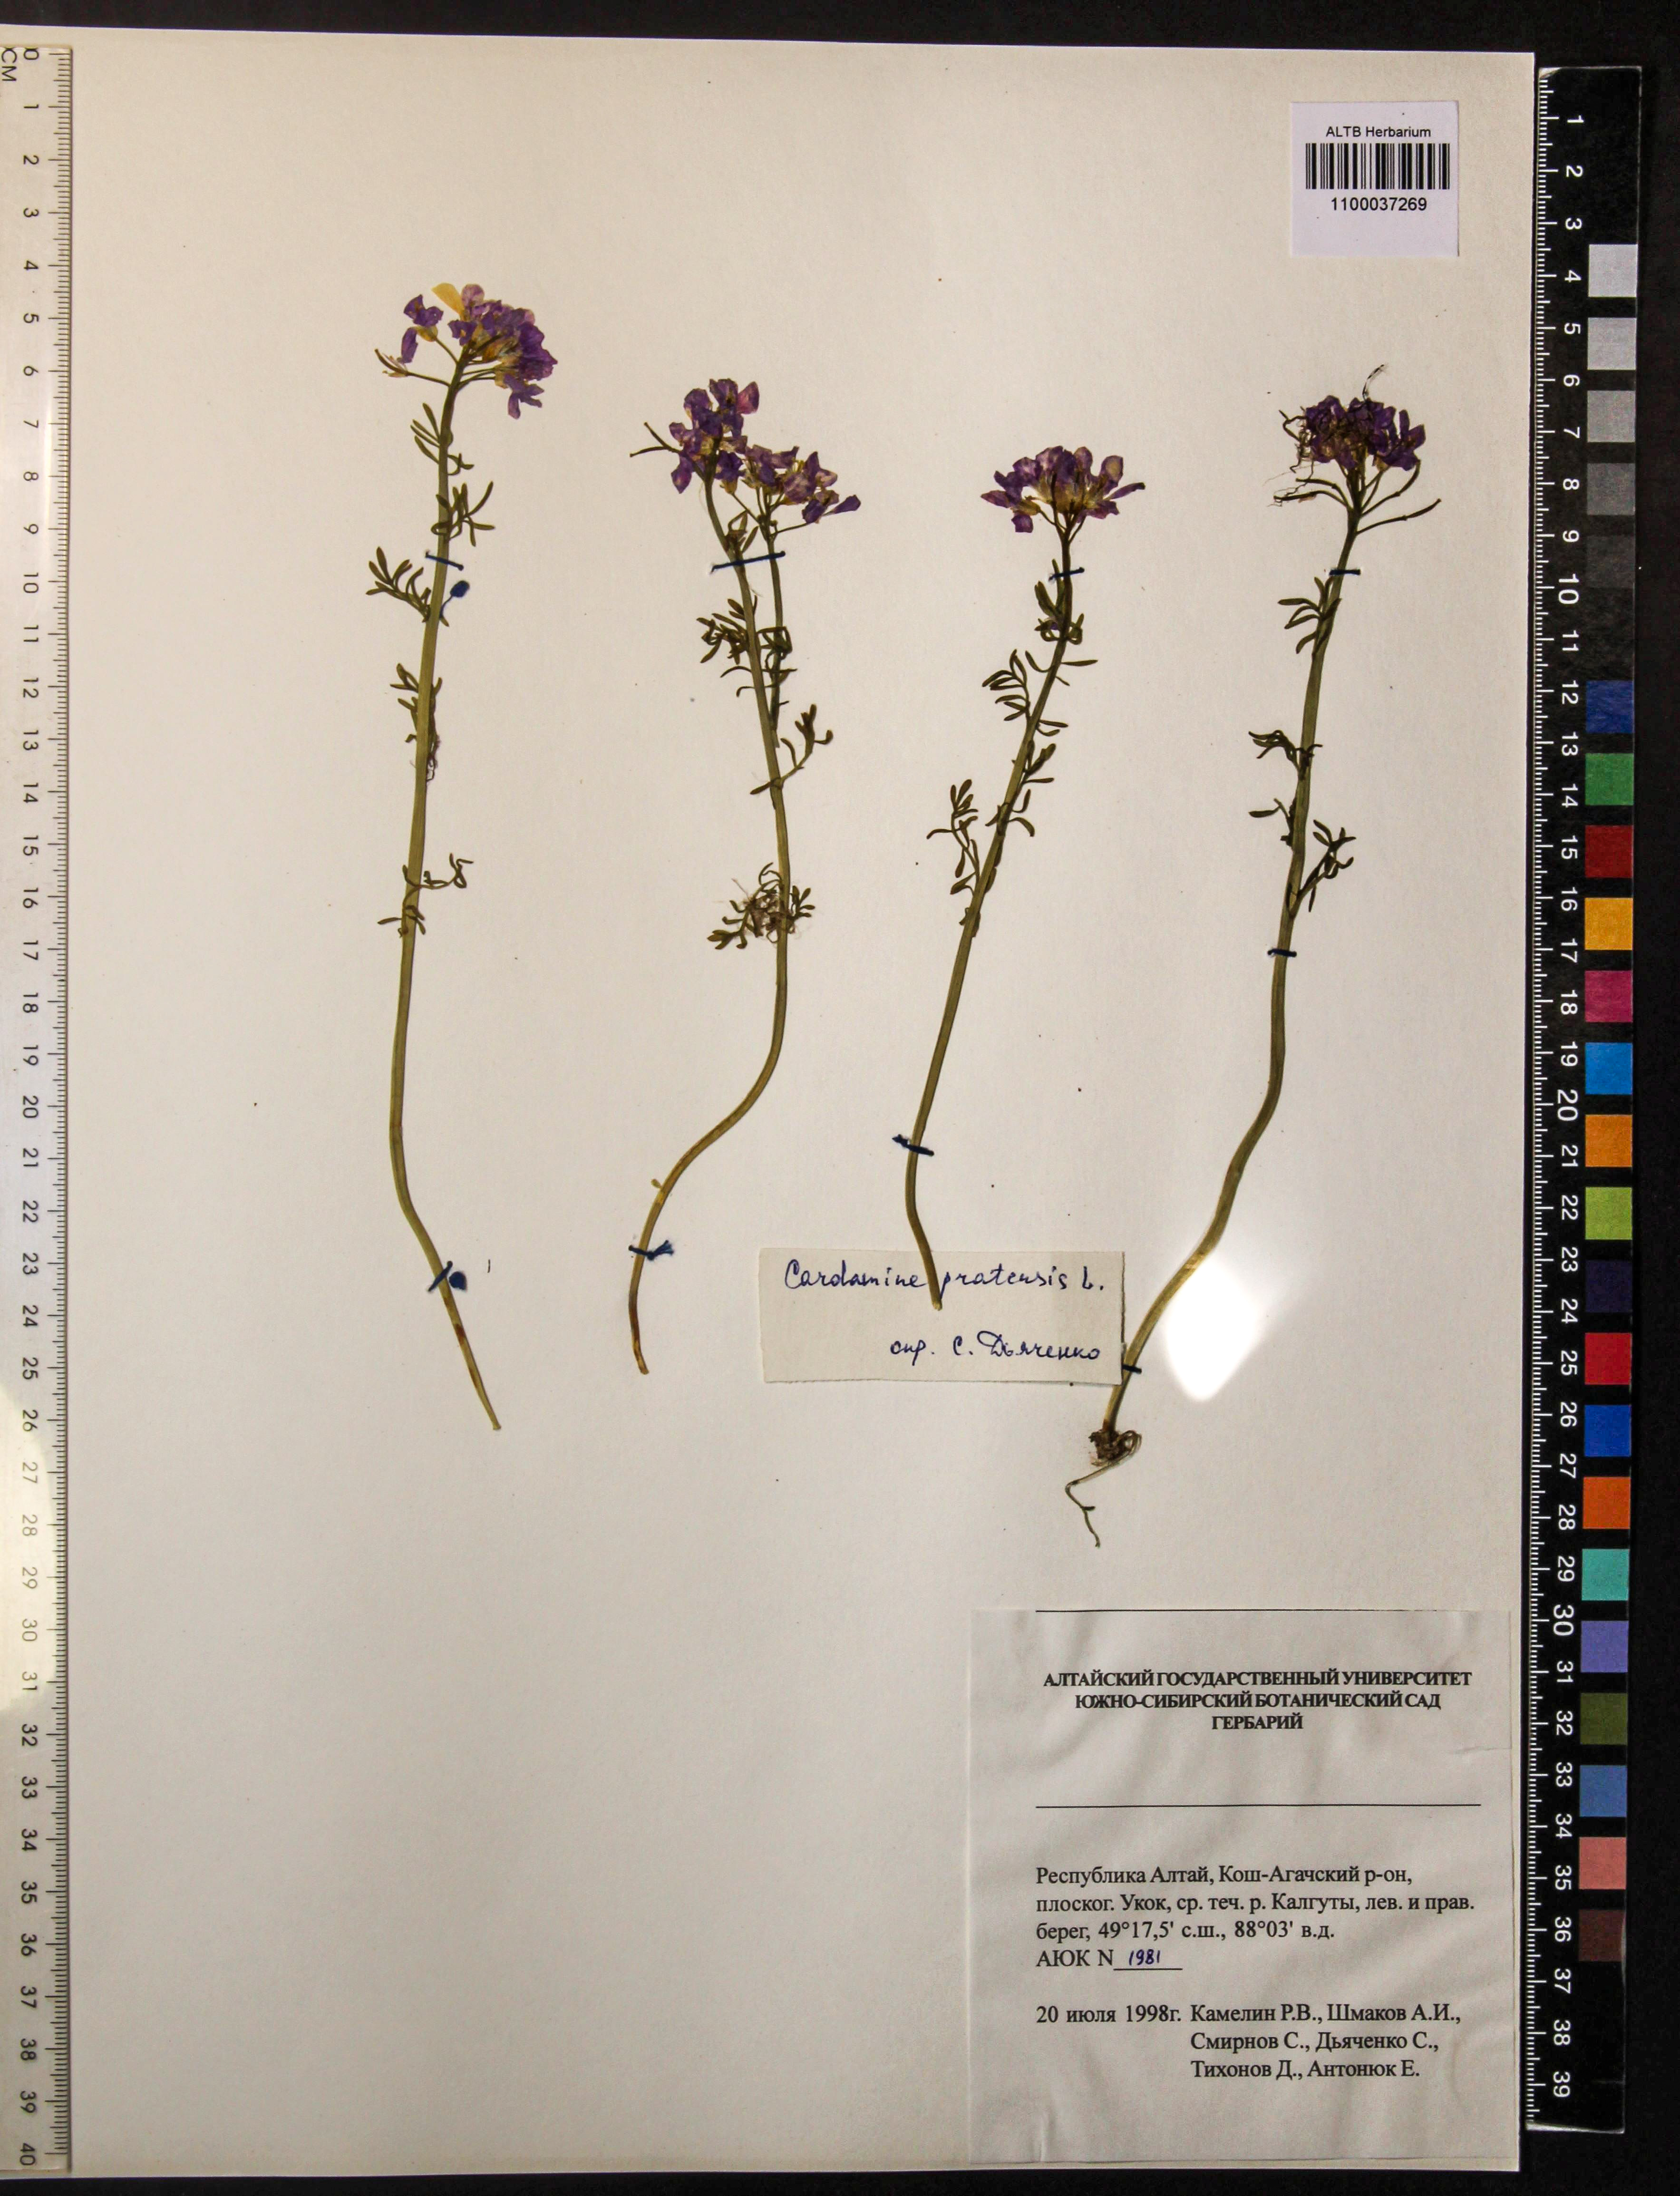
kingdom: Plantae
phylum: Tracheophyta
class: Magnoliopsida
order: Brassicales
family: Brassicaceae
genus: Cardamine
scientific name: Cardamine pratensis
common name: Cuckoo flower
